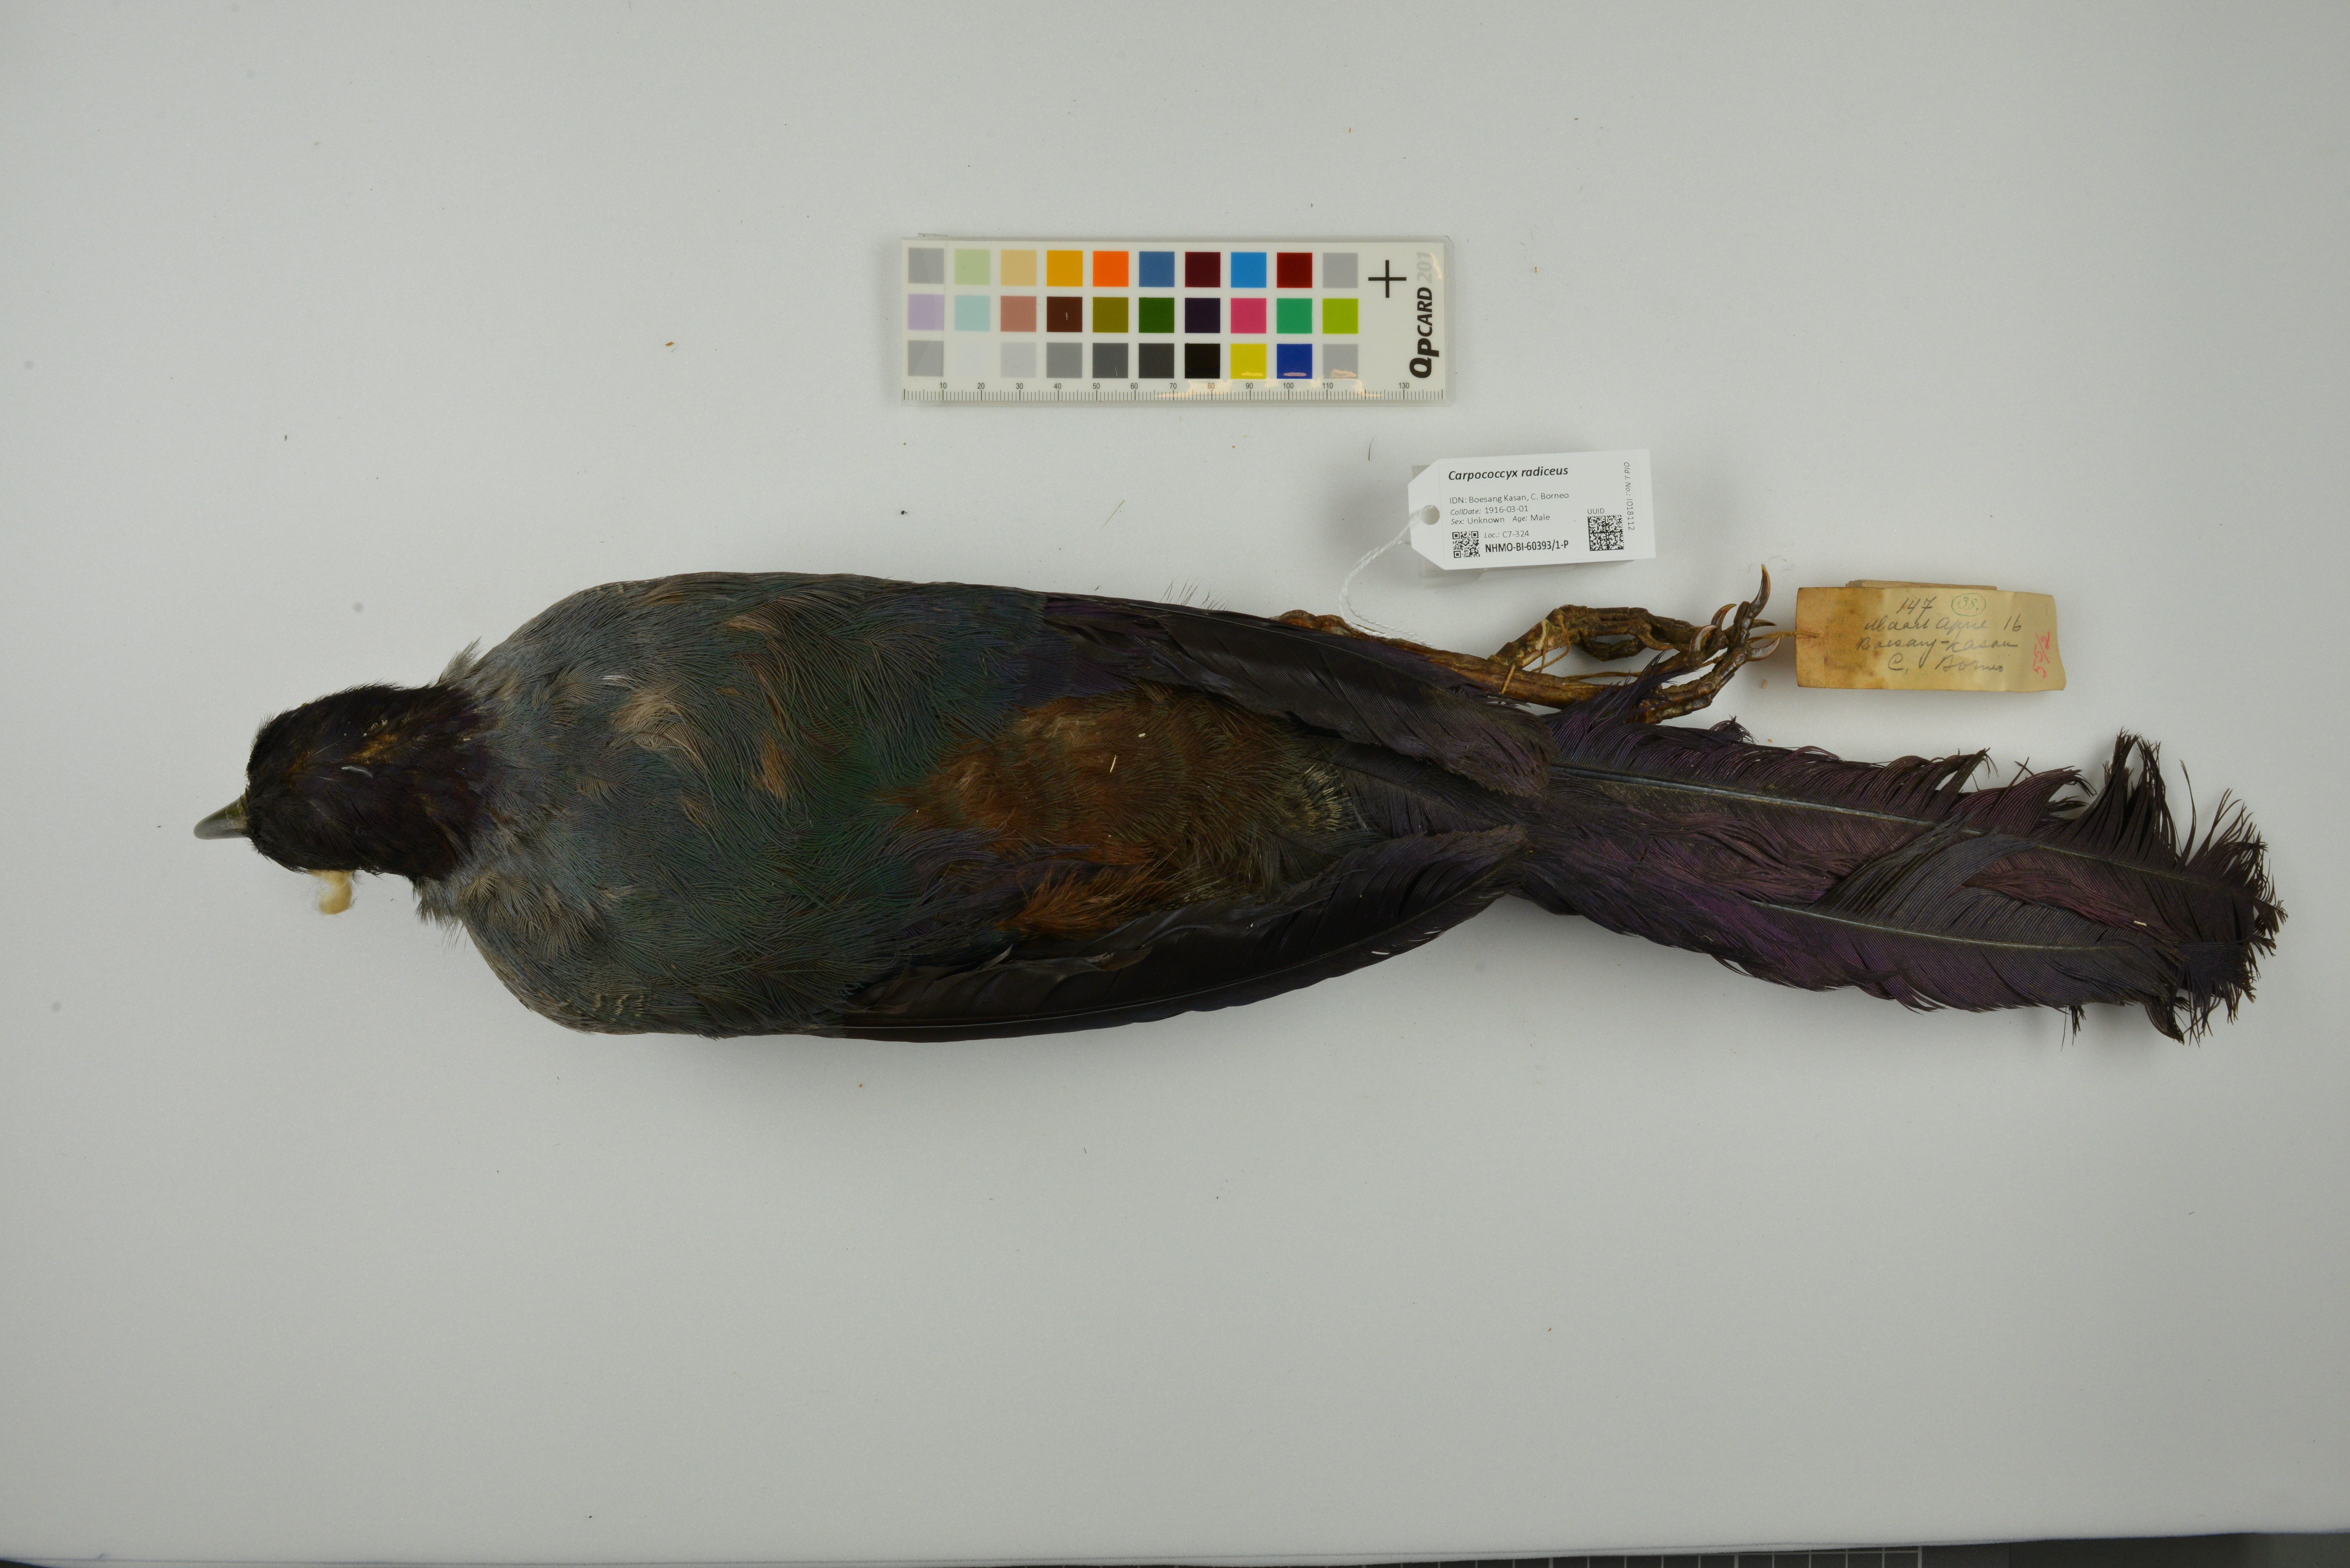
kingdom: Animalia
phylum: Chordata
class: Aves
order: Cuculiformes
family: Cuculidae
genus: Carpococcyx
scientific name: Carpococcyx radiceus
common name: Bornean ground-cuckoo
